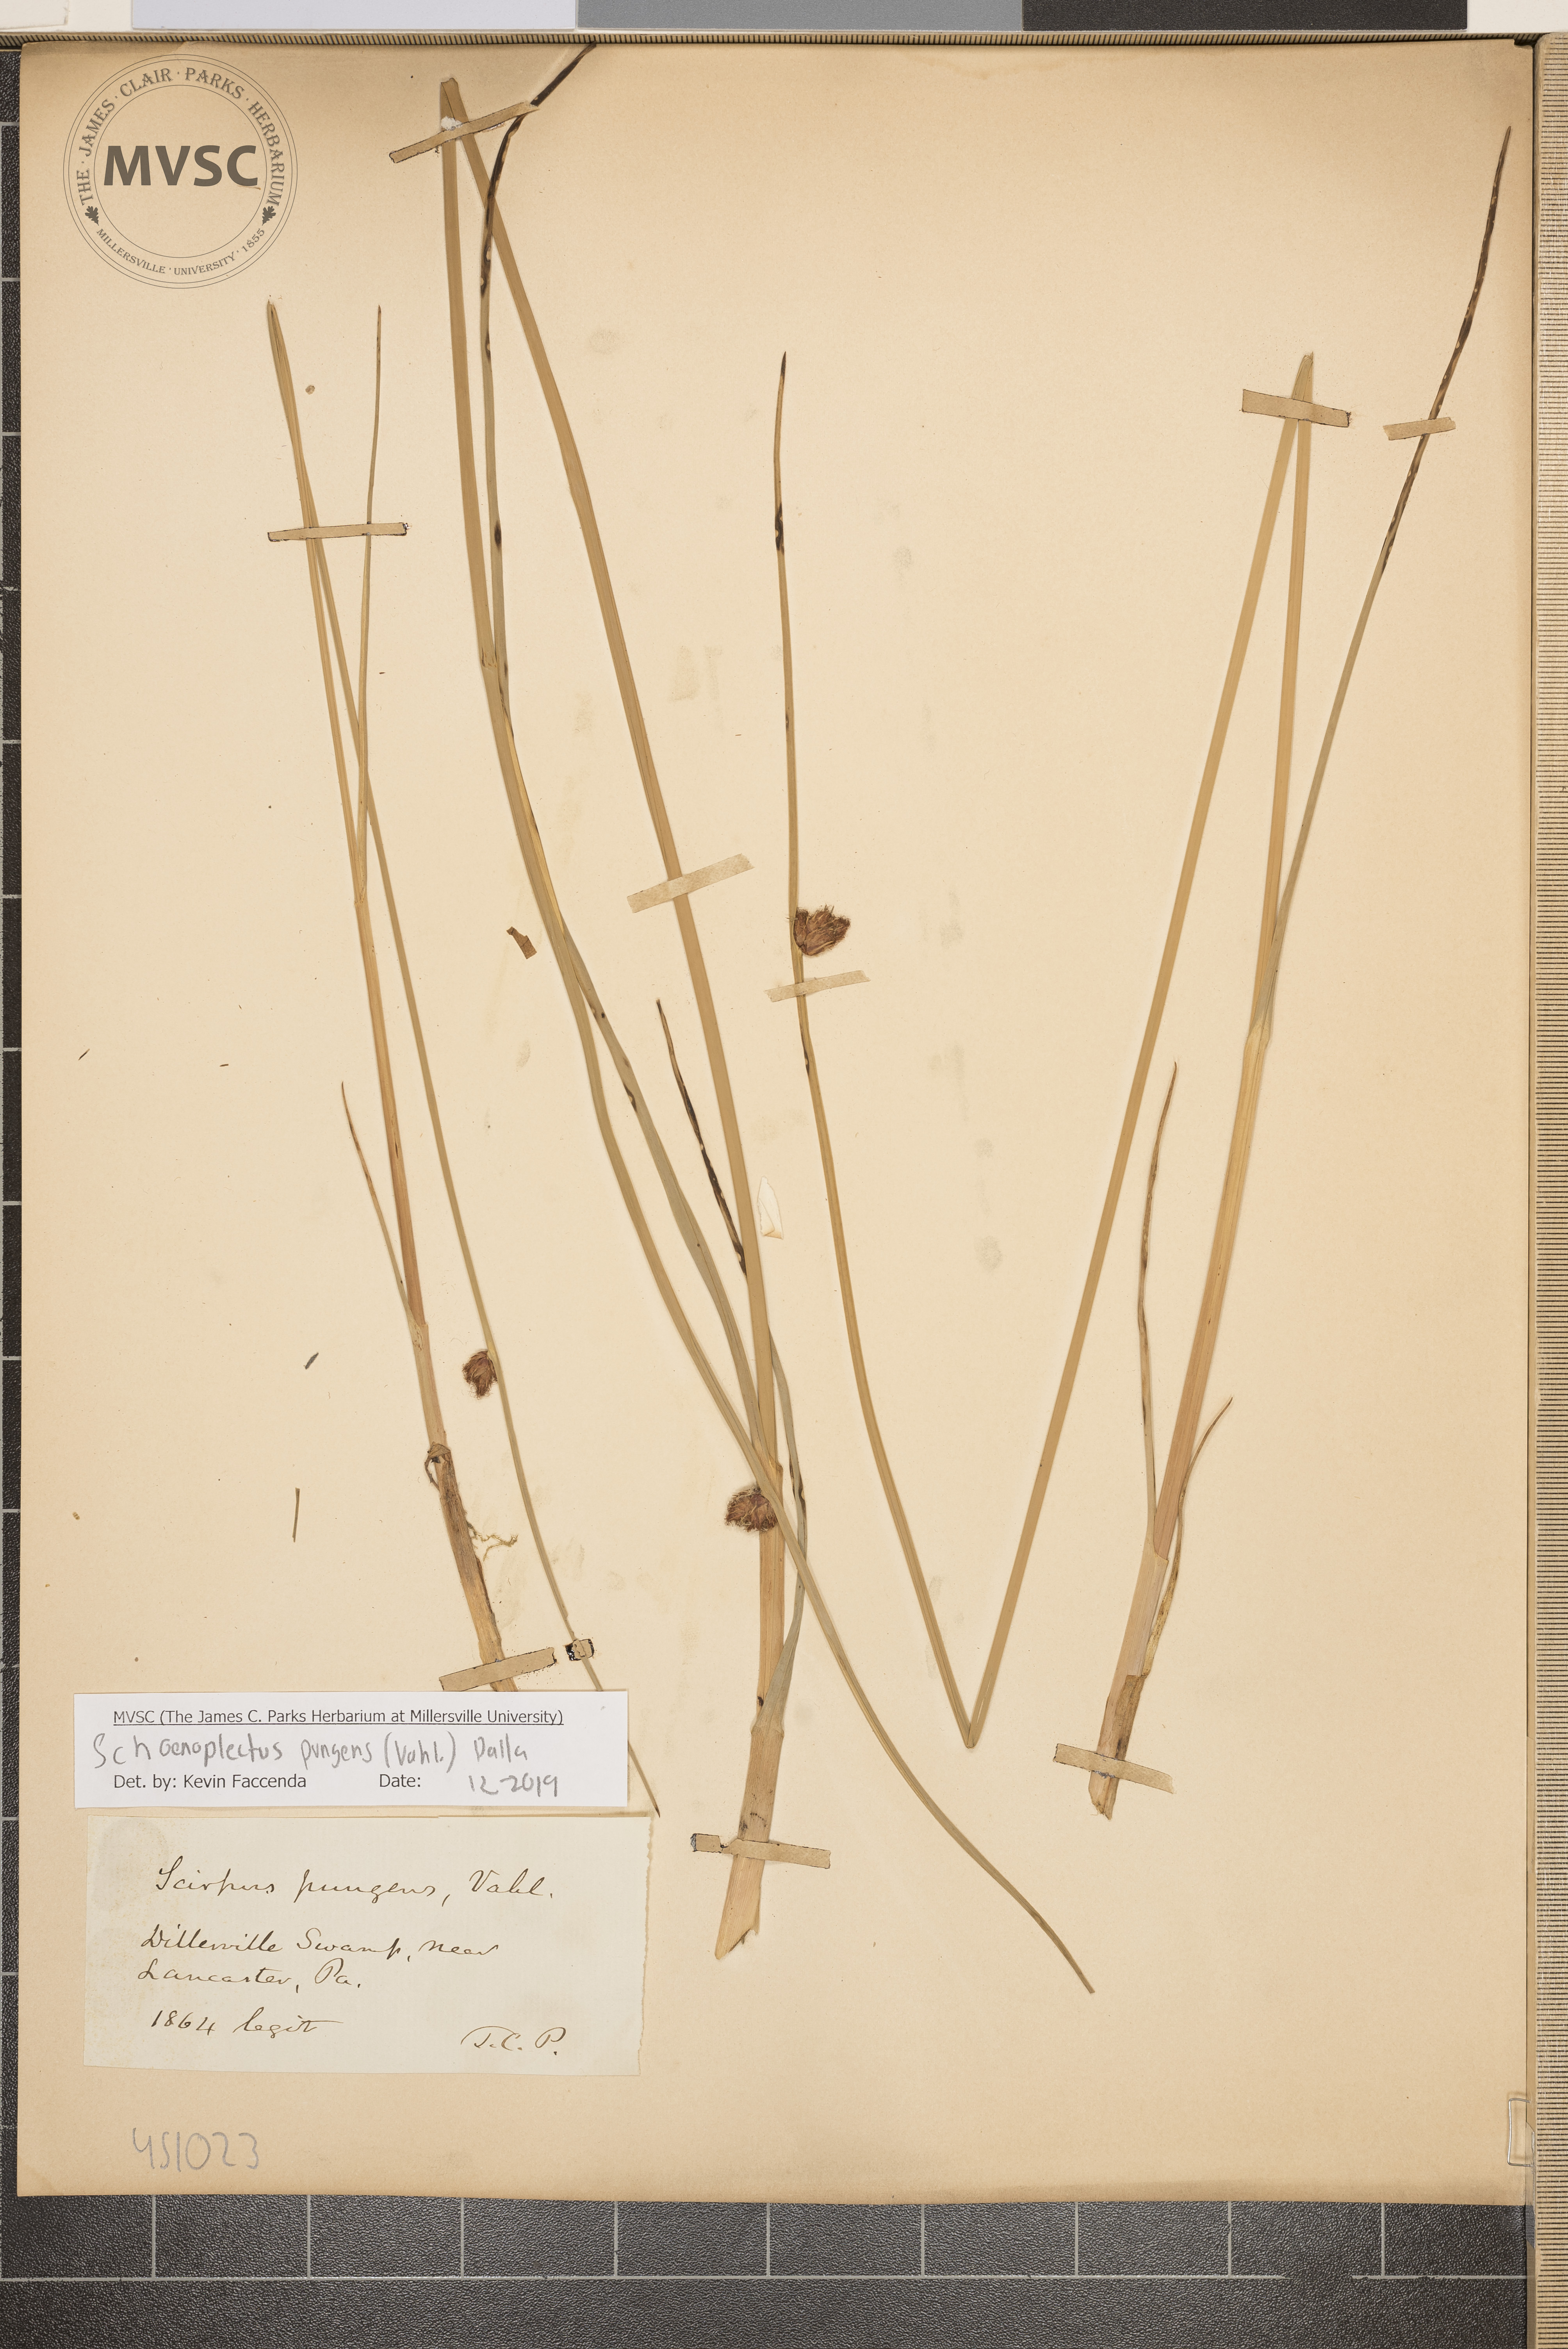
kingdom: Plantae
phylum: Tracheophyta
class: Liliopsida
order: Poales
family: Cyperaceae
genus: Schoenoplectus
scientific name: Schoenoplectus pungens
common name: Sharp club-rush
